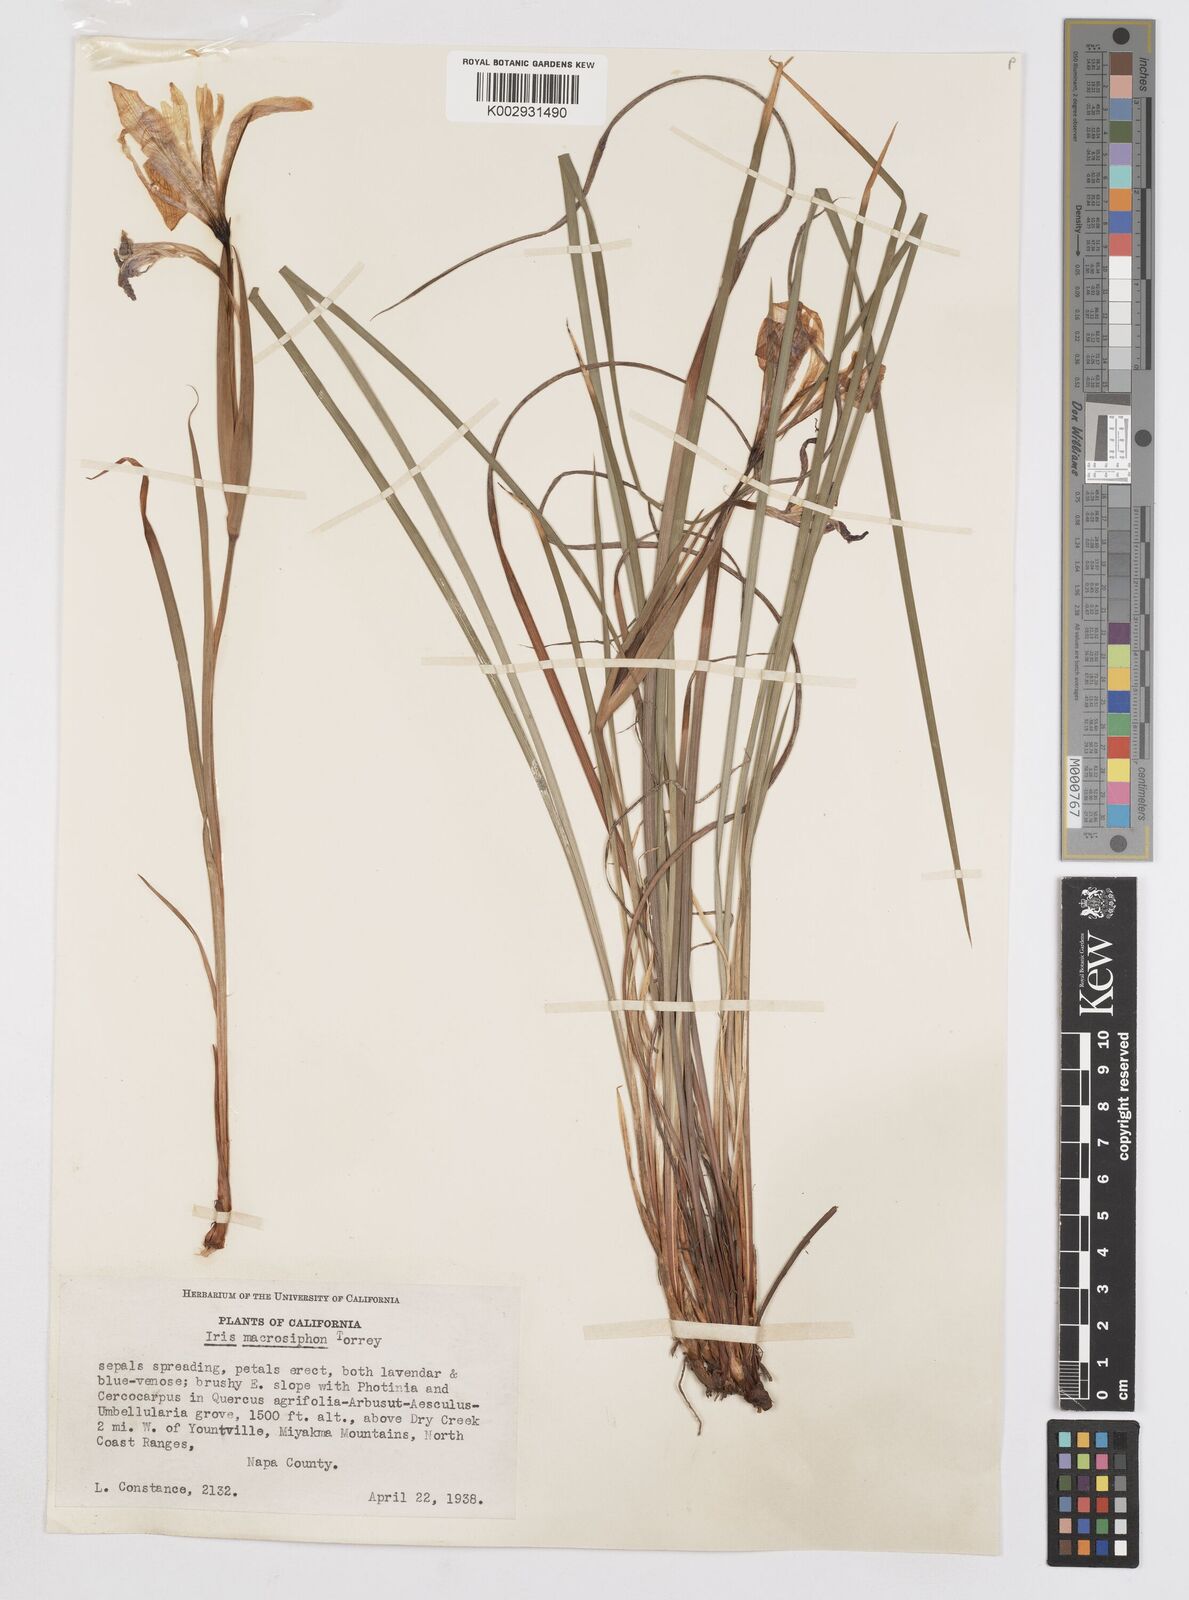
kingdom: Plantae
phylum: Tracheophyta
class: Liliopsida
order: Asparagales
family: Iridaceae
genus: Iris
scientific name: Iris macrosiphon
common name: Ground iris
